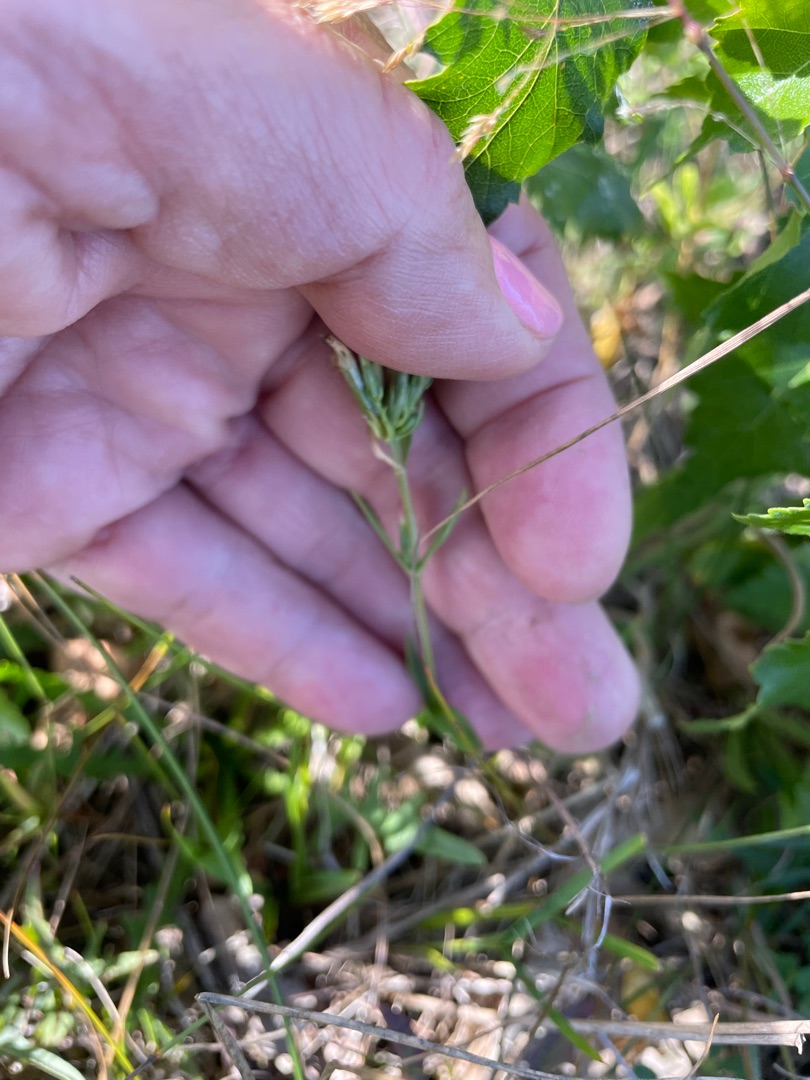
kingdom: Plantae
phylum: Tracheophyta
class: Magnoliopsida
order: Gentianales
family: Gentianaceae
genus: Centaurium
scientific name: Centaurium erythraea
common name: Mark-tusindgylden
